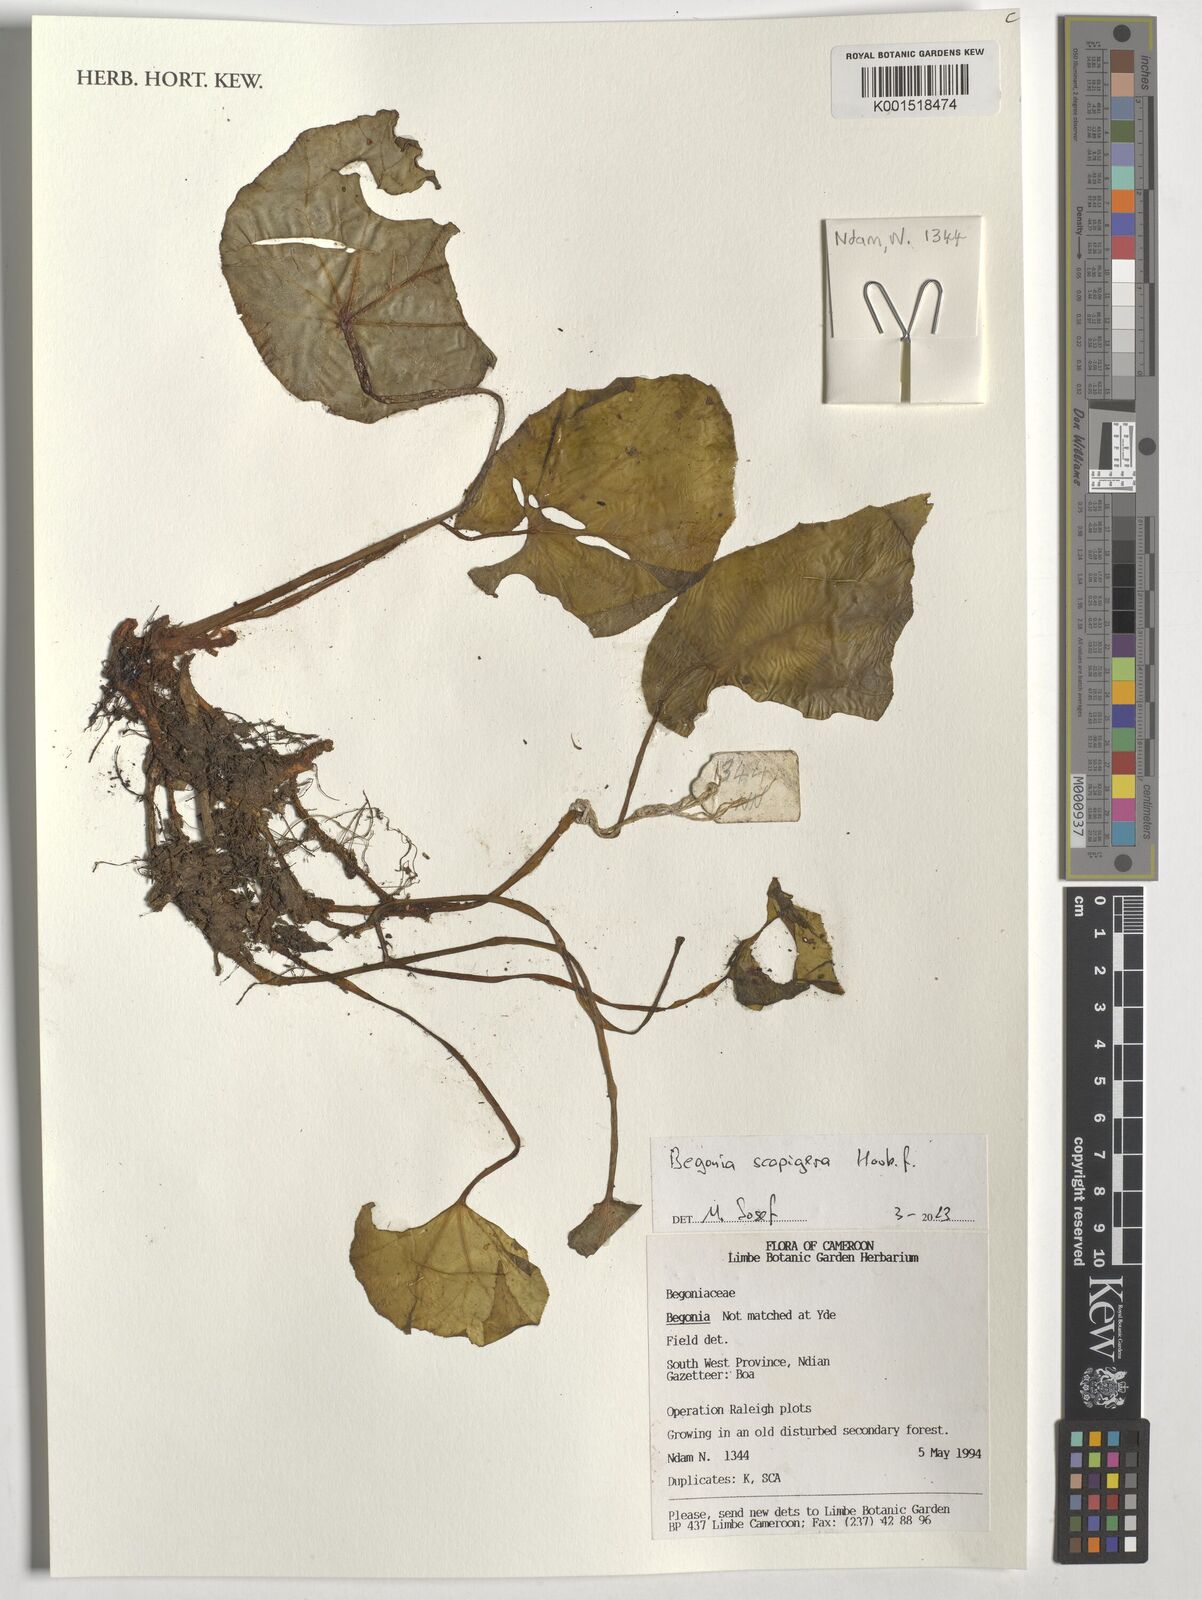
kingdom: Plantae
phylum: Tracheophyta
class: Magnoliopsida
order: Cucurbitales
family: Begoniaceae
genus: Begonia
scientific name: Begonia scapigera
